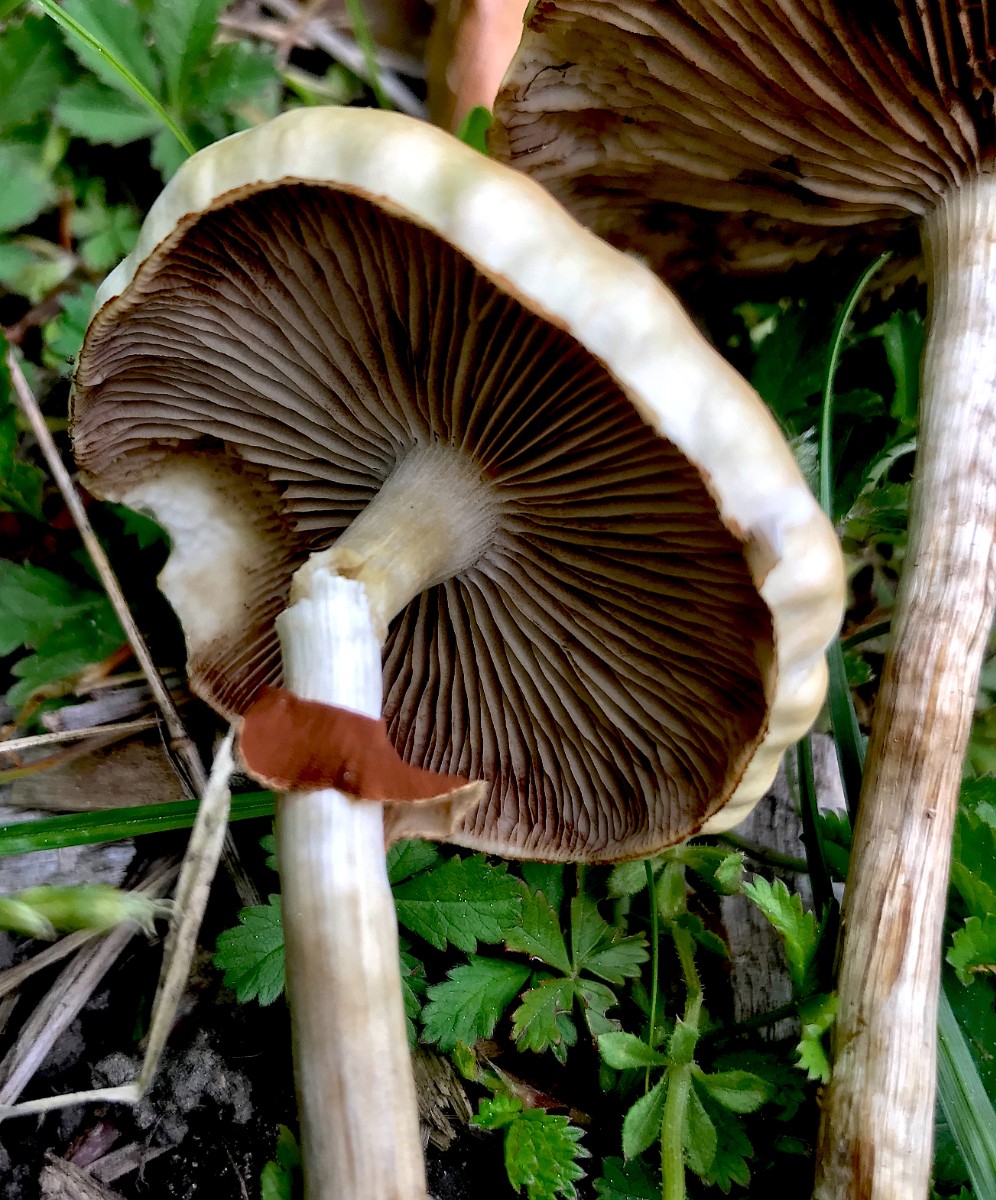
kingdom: Fungi
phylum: Basidiomycota
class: Agaricomycetes
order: Agaricales
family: Strophariaceae
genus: Agrocybe
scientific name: Agrocybe praecox
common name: tidlig agerhat
